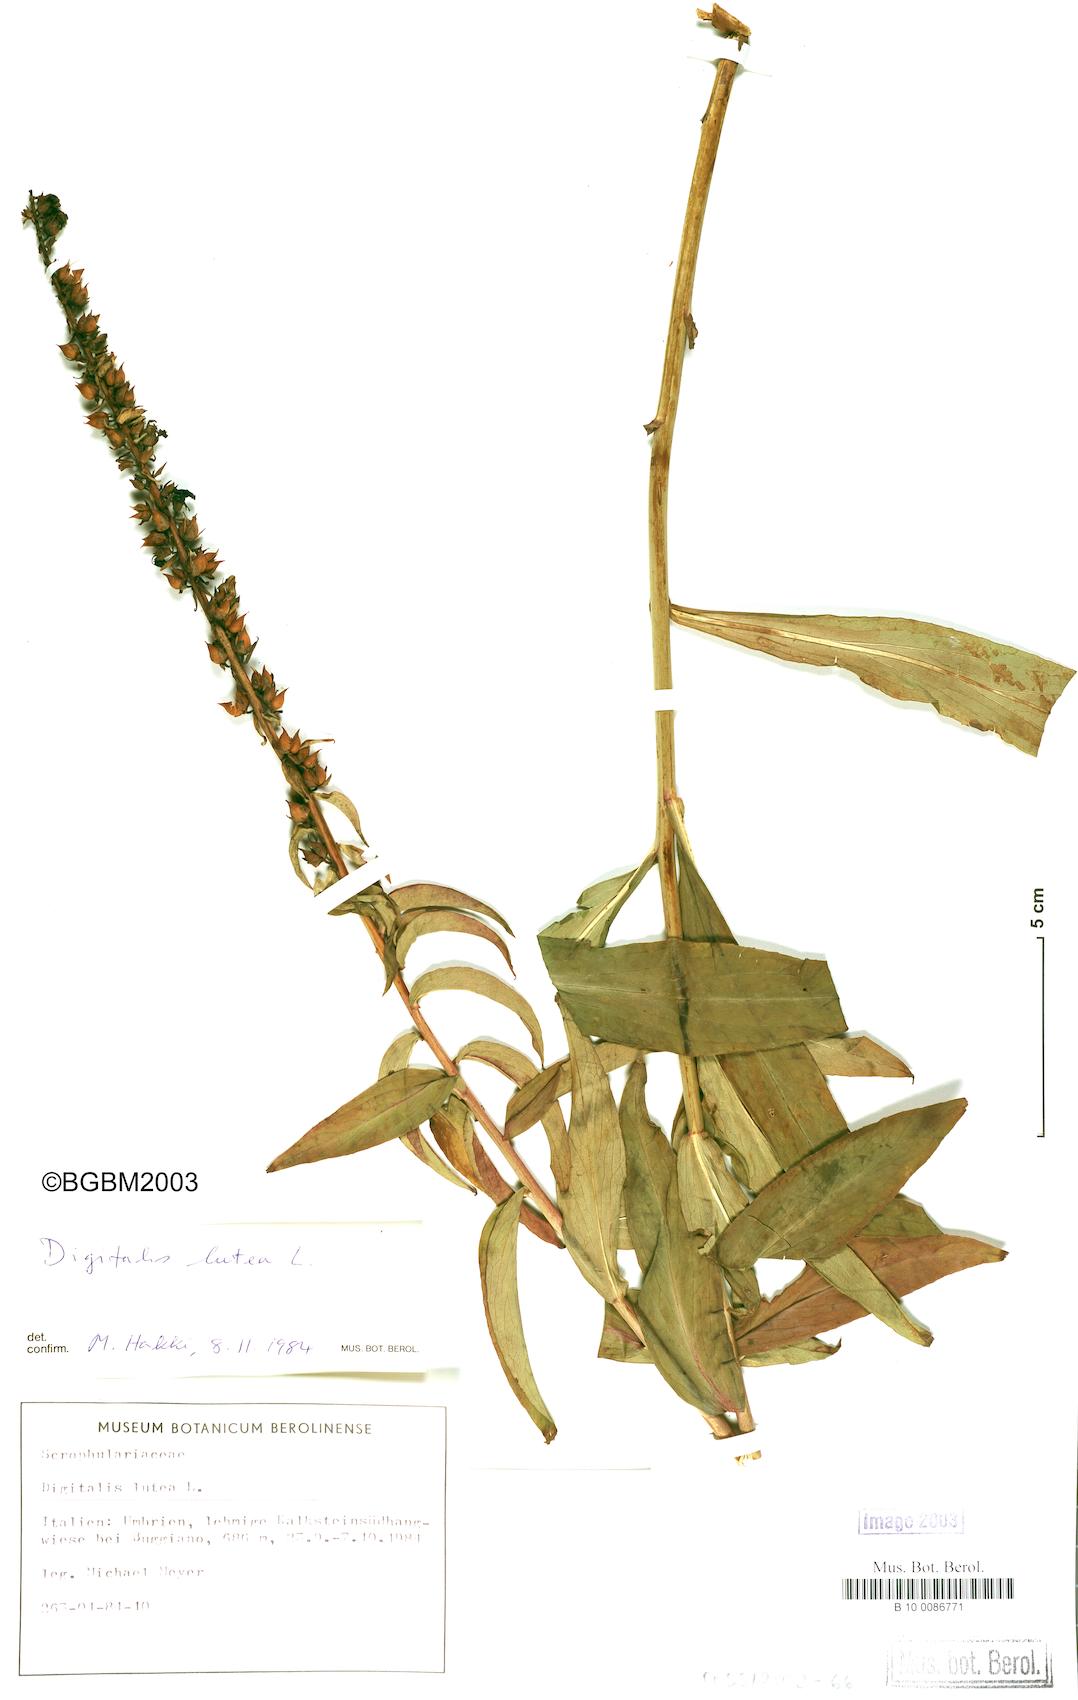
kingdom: Plantae
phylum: Tracheophyta
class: Magnoliopsida
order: Lamiales
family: Plantaginaceae
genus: Digitalis
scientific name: Digitalis lutea
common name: Straw foxglove
